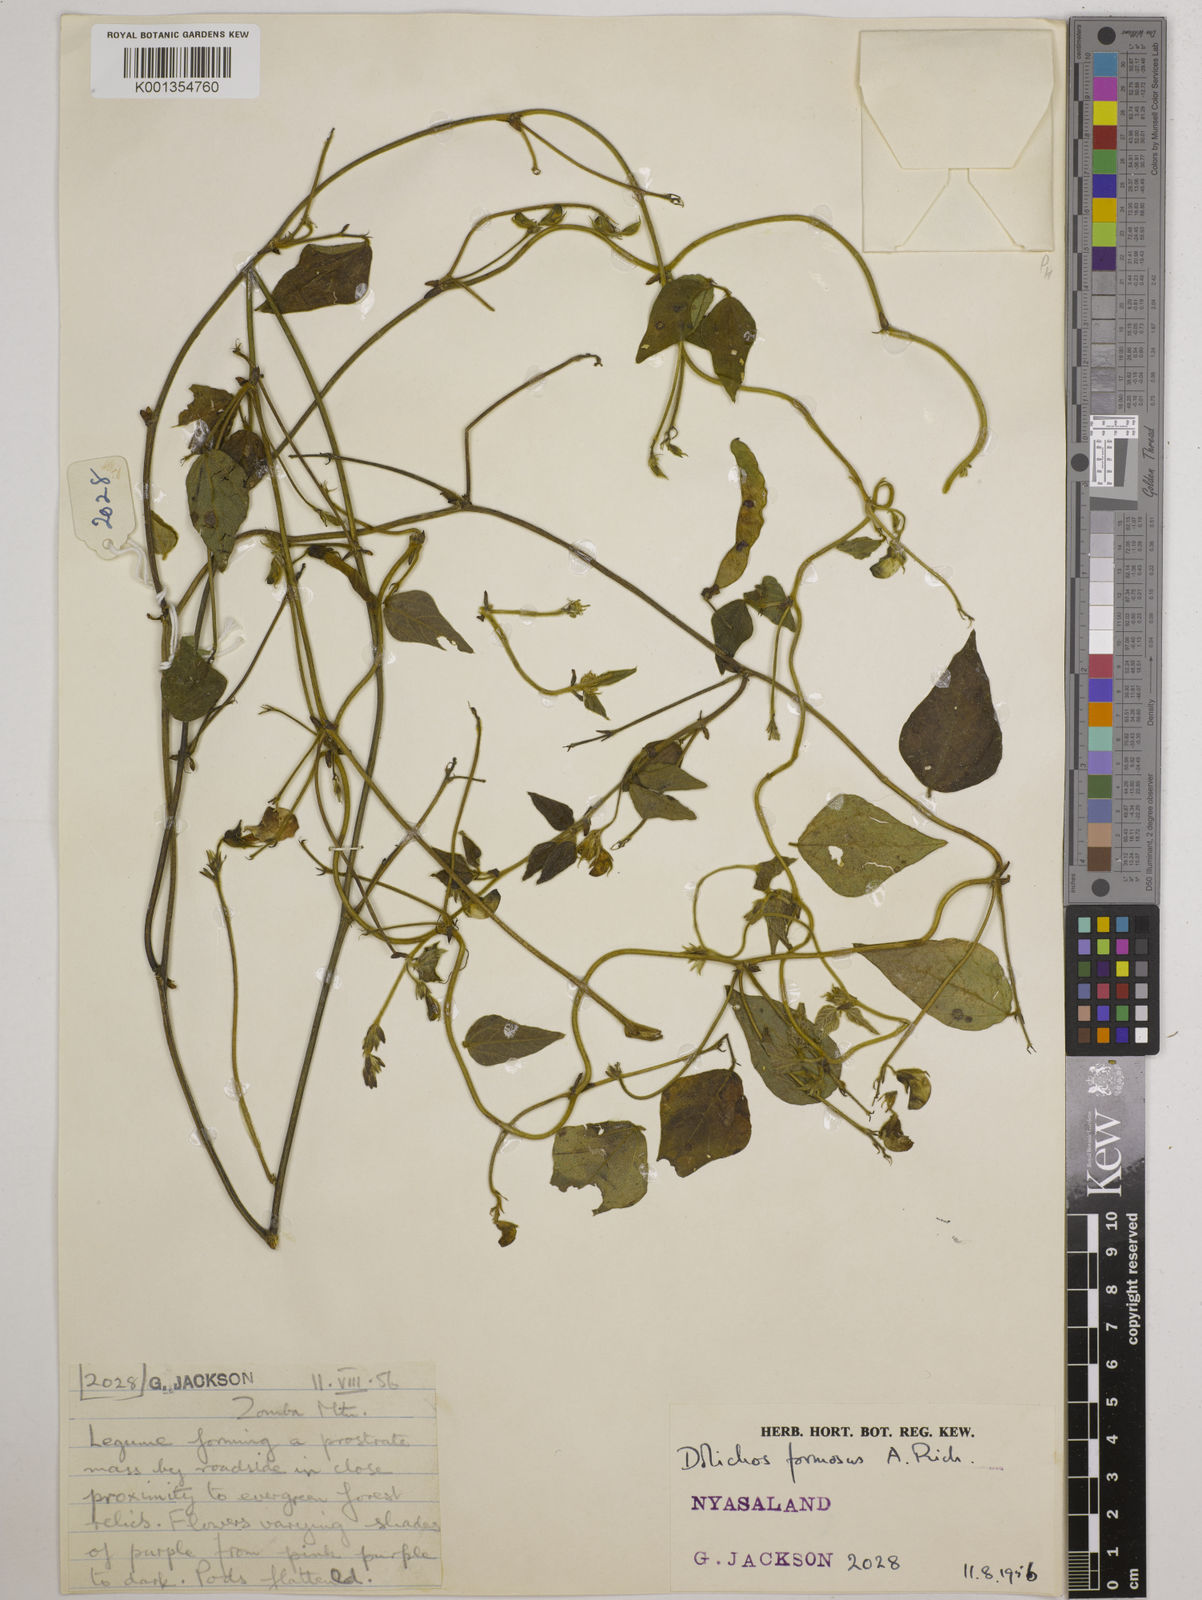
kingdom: Plantae
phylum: Tracheophyta
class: Magnoliopsida
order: Fabales
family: Fabaceae
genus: Dolichos
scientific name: Dolichos
